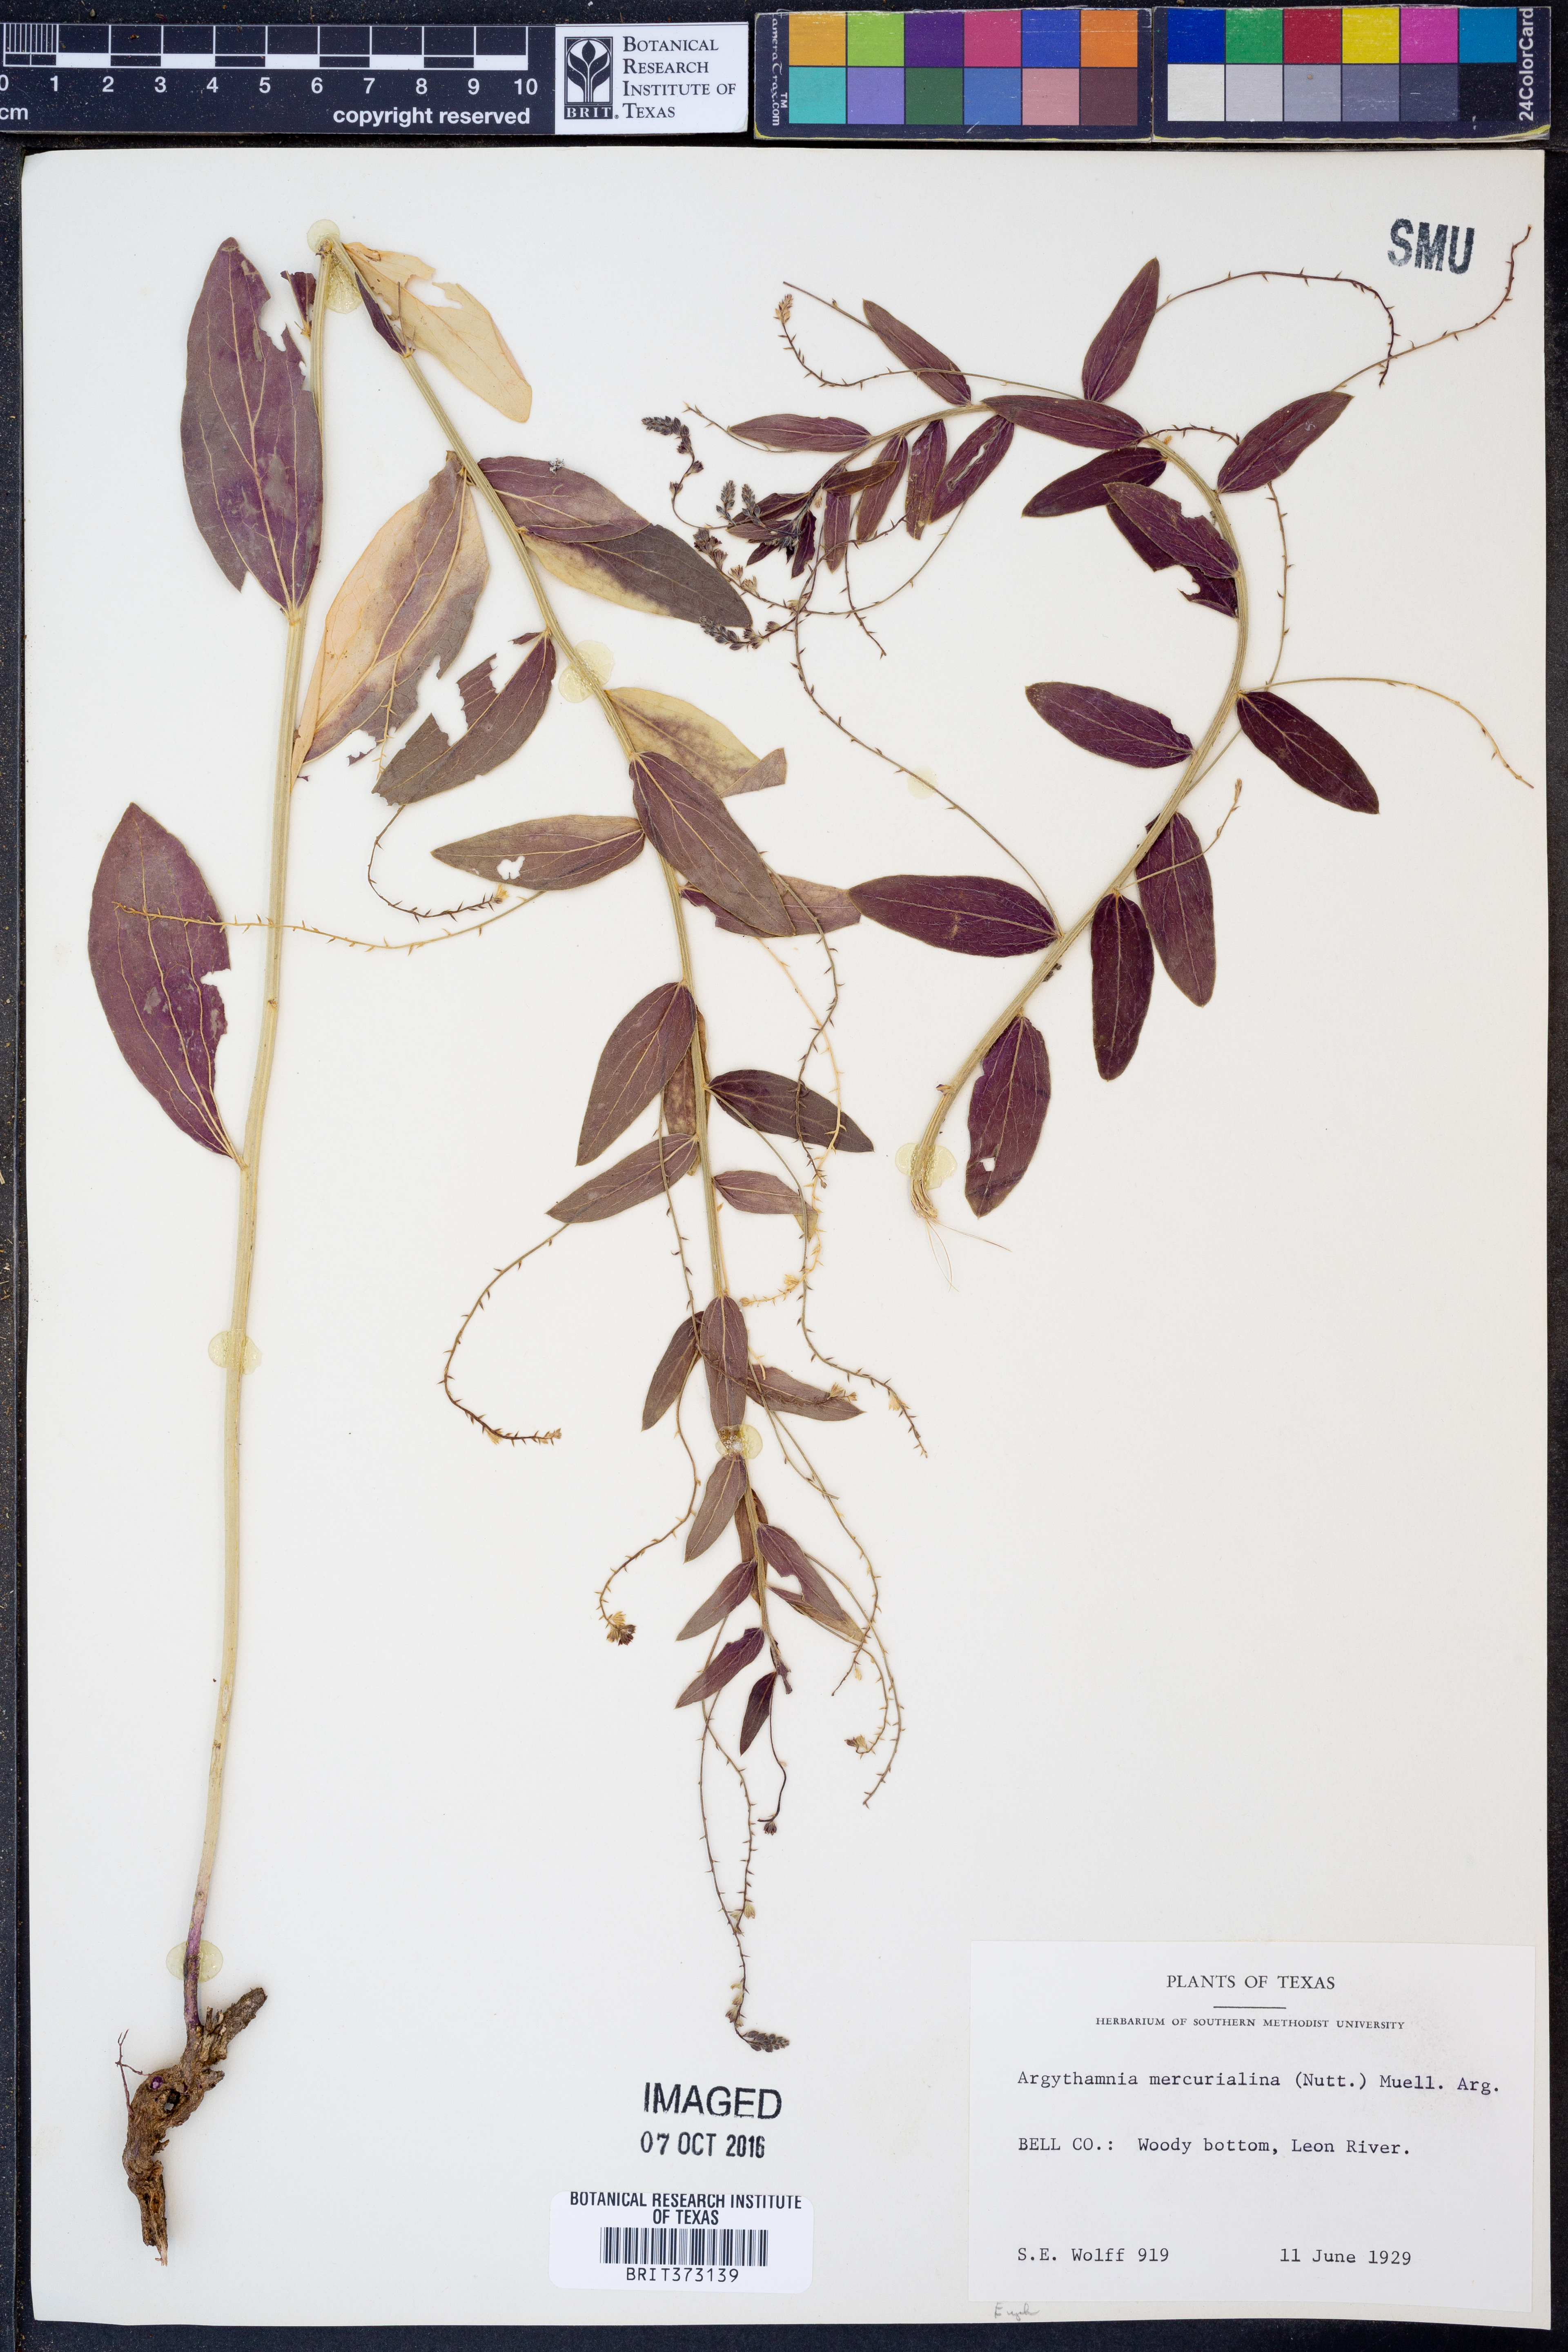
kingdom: Plantae
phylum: Tracheophyta
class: Magnoliopsida
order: Malpighiales
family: Euphorbiaceae
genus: Ditaxis
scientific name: Ditaxis mercurialina
